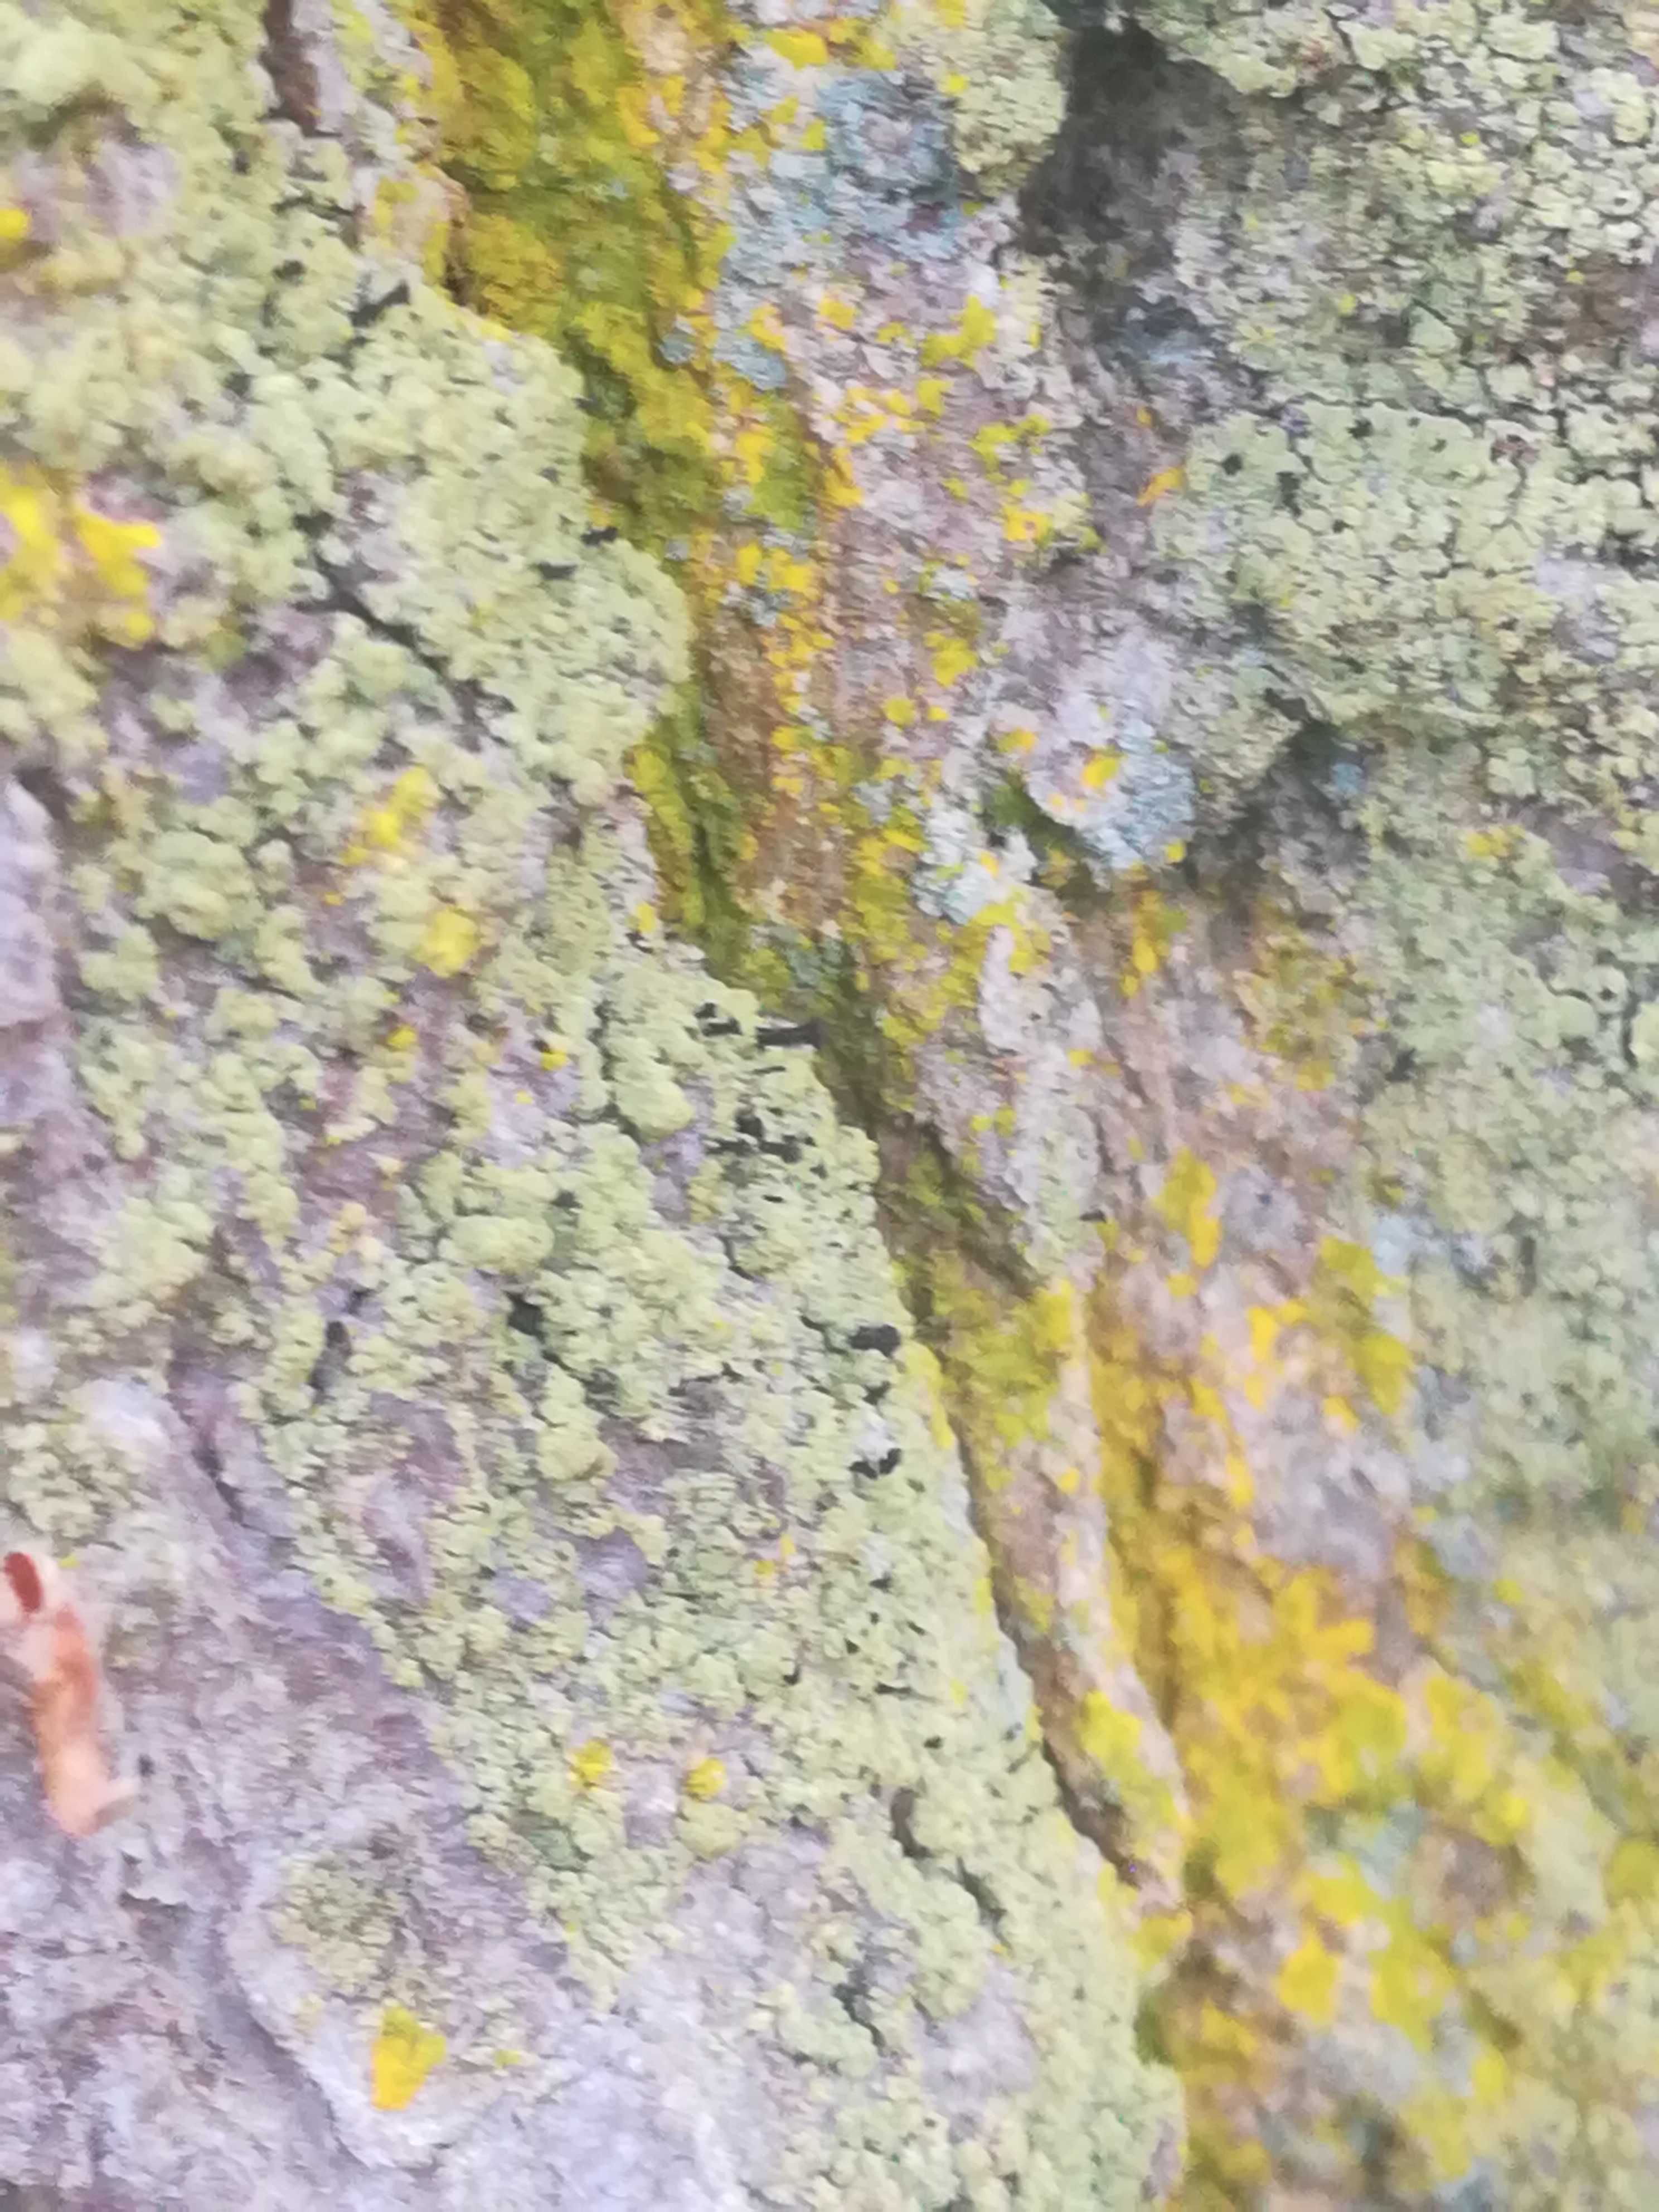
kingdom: Fungi
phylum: Ascomycota
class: Lecanoromycetes
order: Caliciales
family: Caliciaceae
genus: Calicium
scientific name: Calicium viride
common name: gulgrøn nålelav
